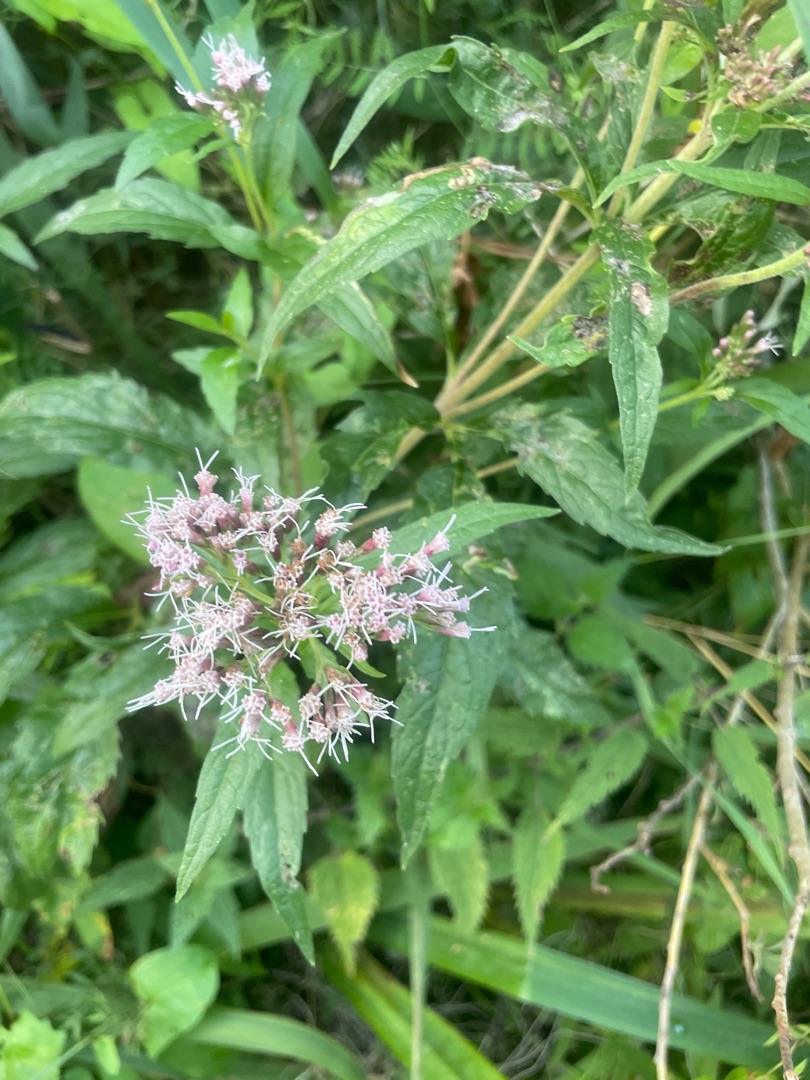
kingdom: Plantae
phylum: Tracheophyta
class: Magnoliopsida
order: Asterales
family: Asteraceae
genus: Eupatorium
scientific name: Eupatorium cannabinum
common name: Hjortetrøst
